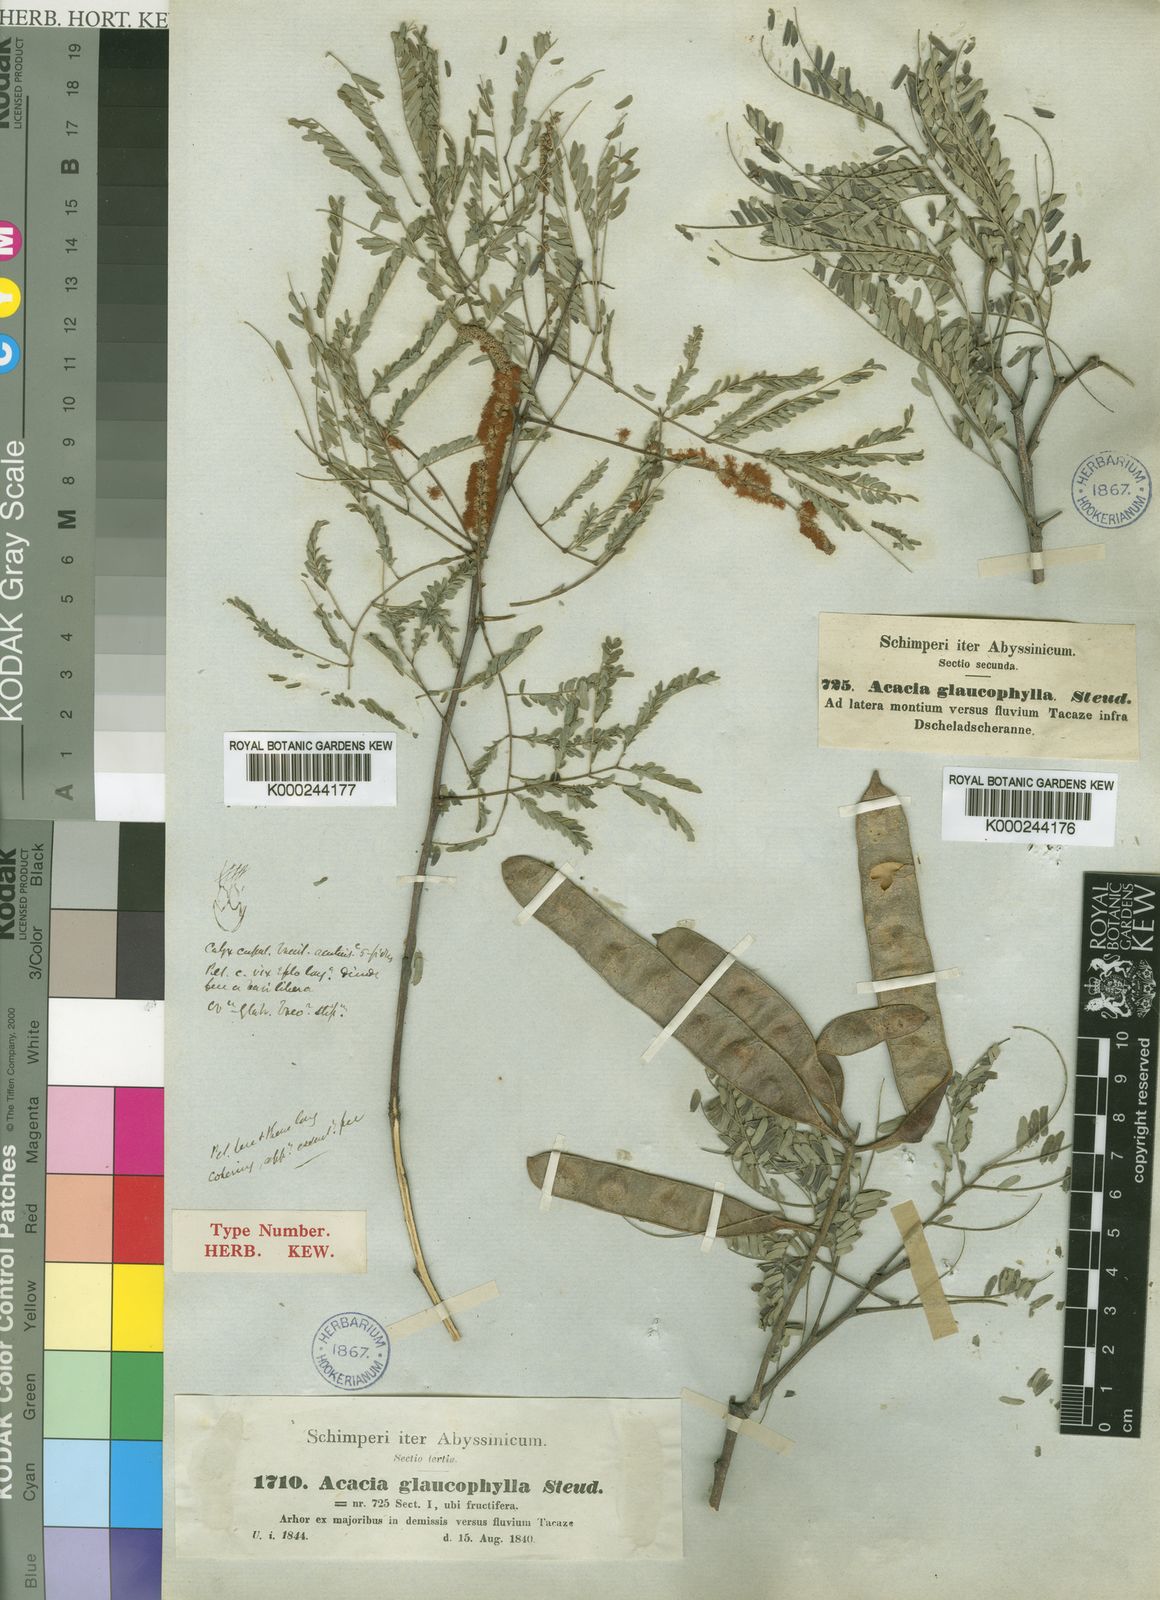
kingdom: Plantae
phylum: Tracheophyta
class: Magnoliopsida
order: Fabales
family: Fabaceae
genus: Senegalia
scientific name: Senegalia asak
